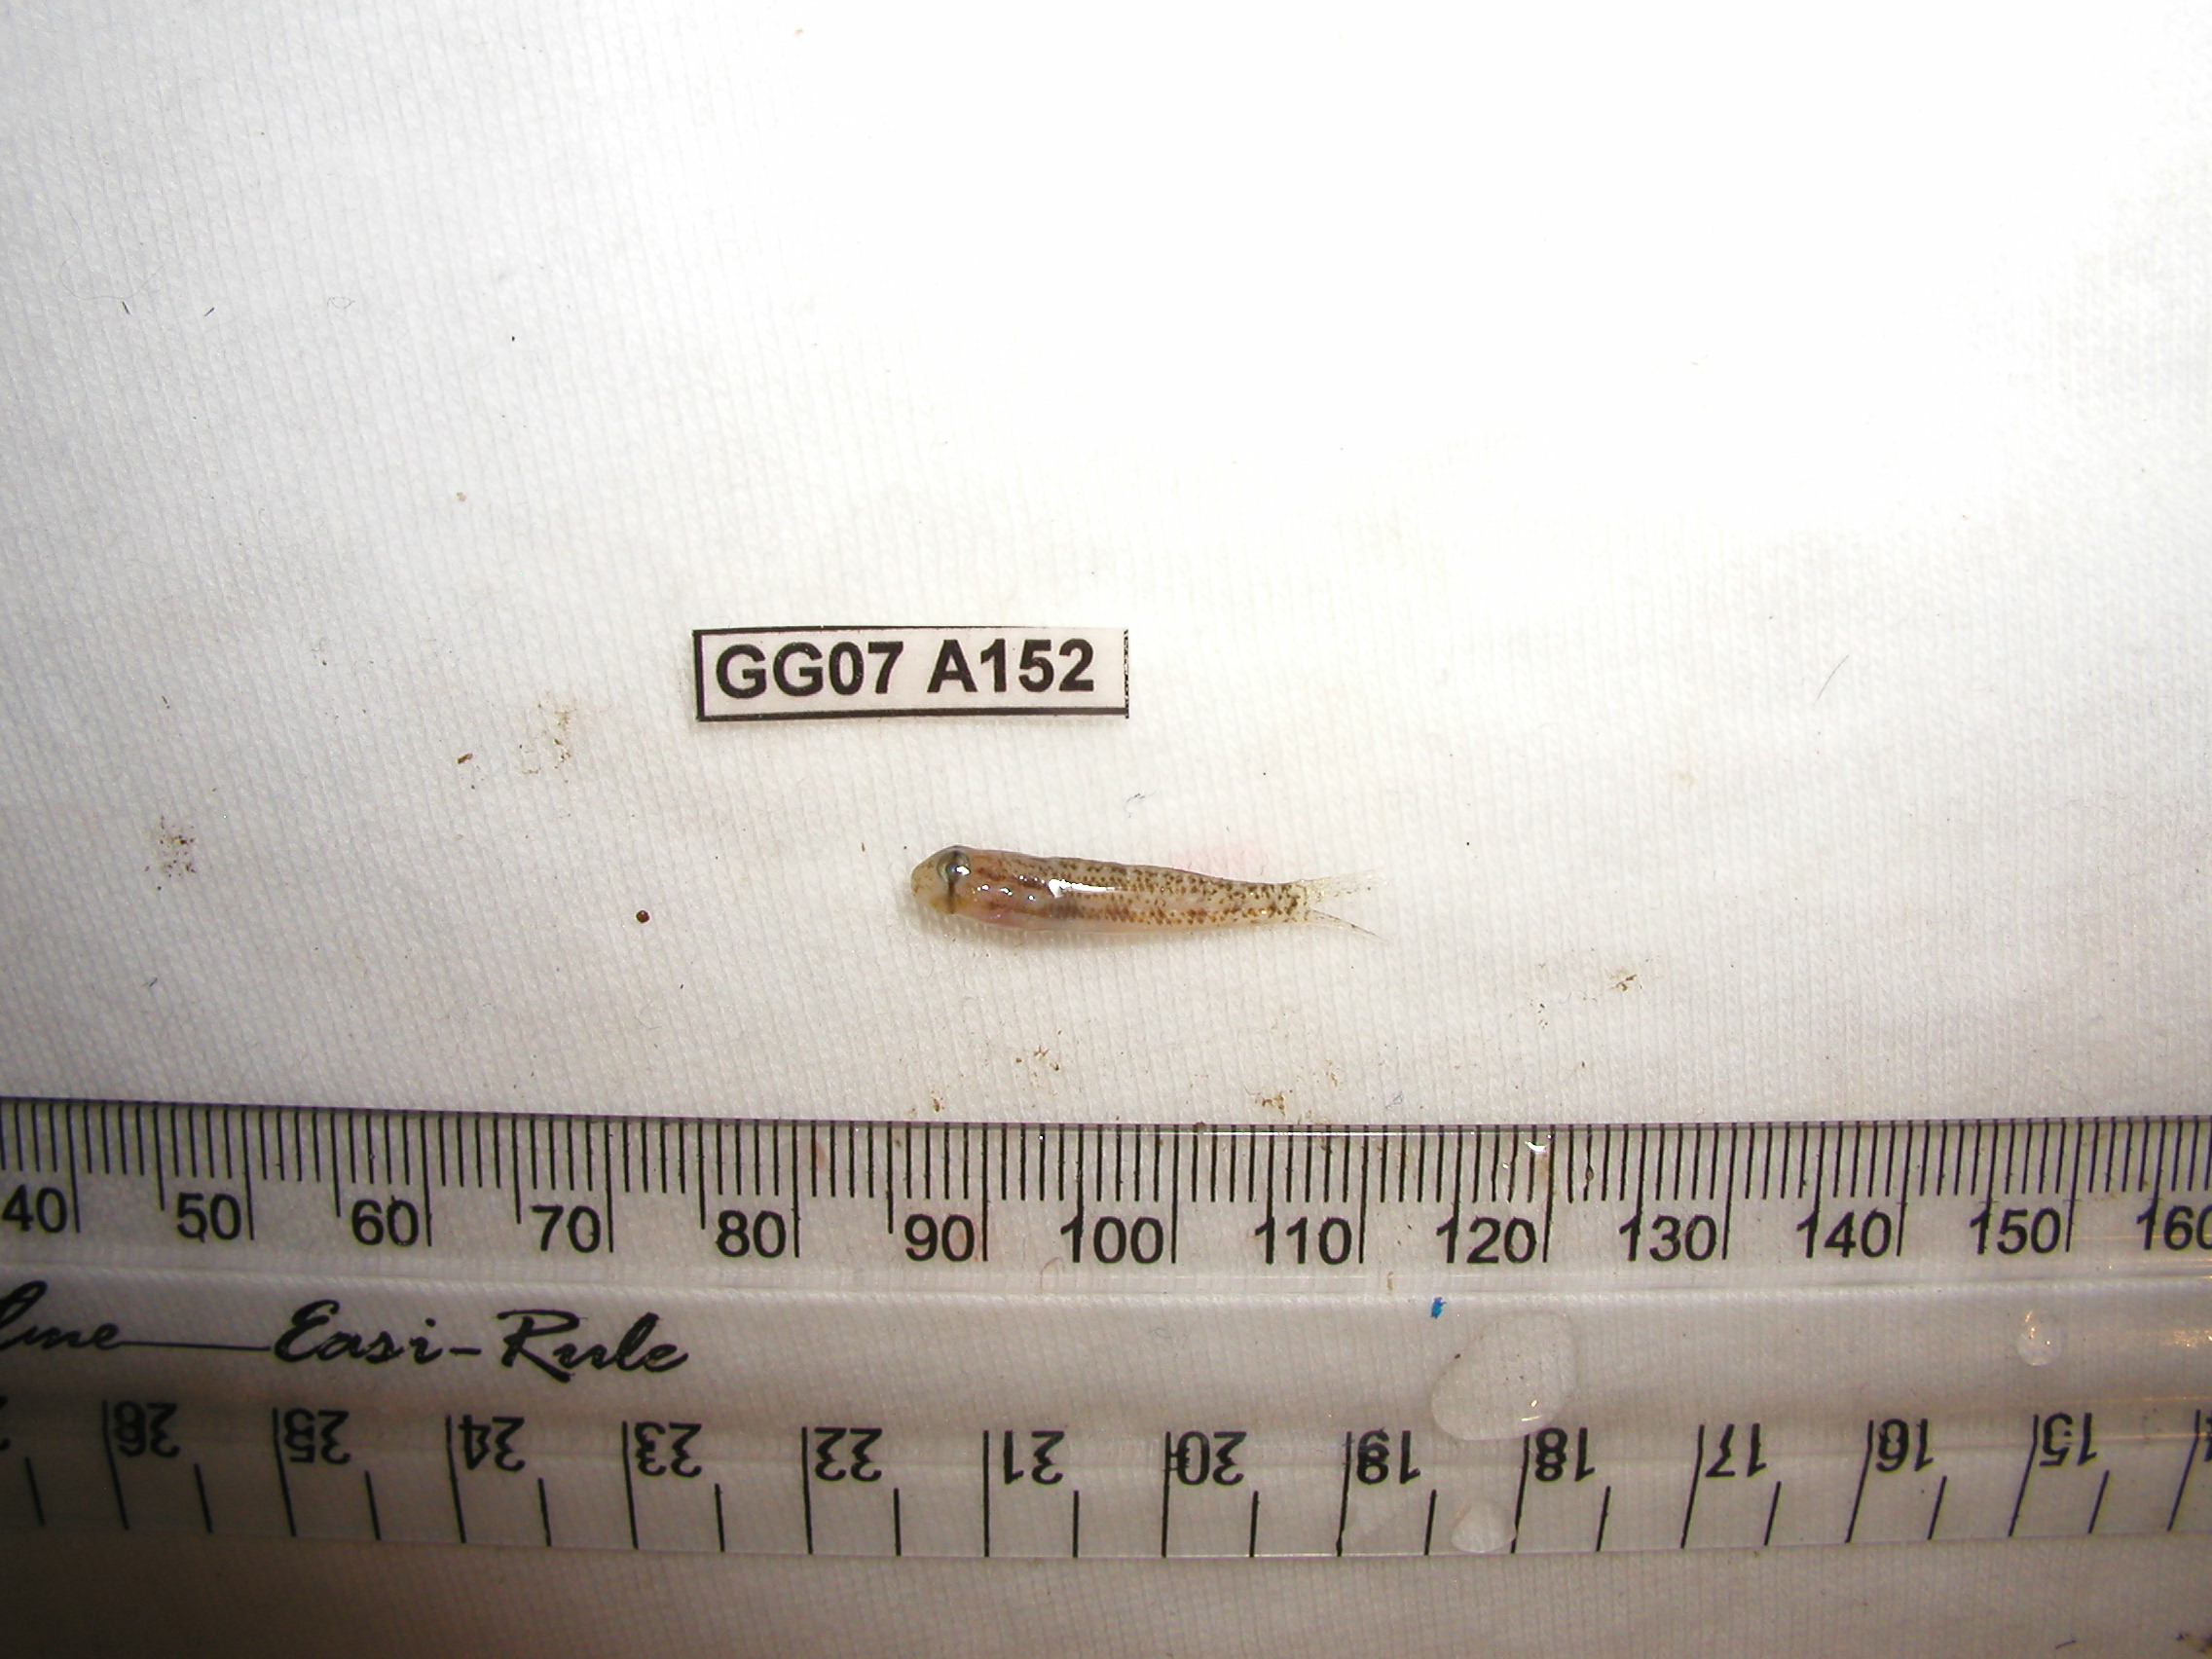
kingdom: Animalia
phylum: Chordata
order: Perciformes
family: Gobiidae
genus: Gnatholepis
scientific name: Gnatholepis cauerensis
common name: Bridled goby
